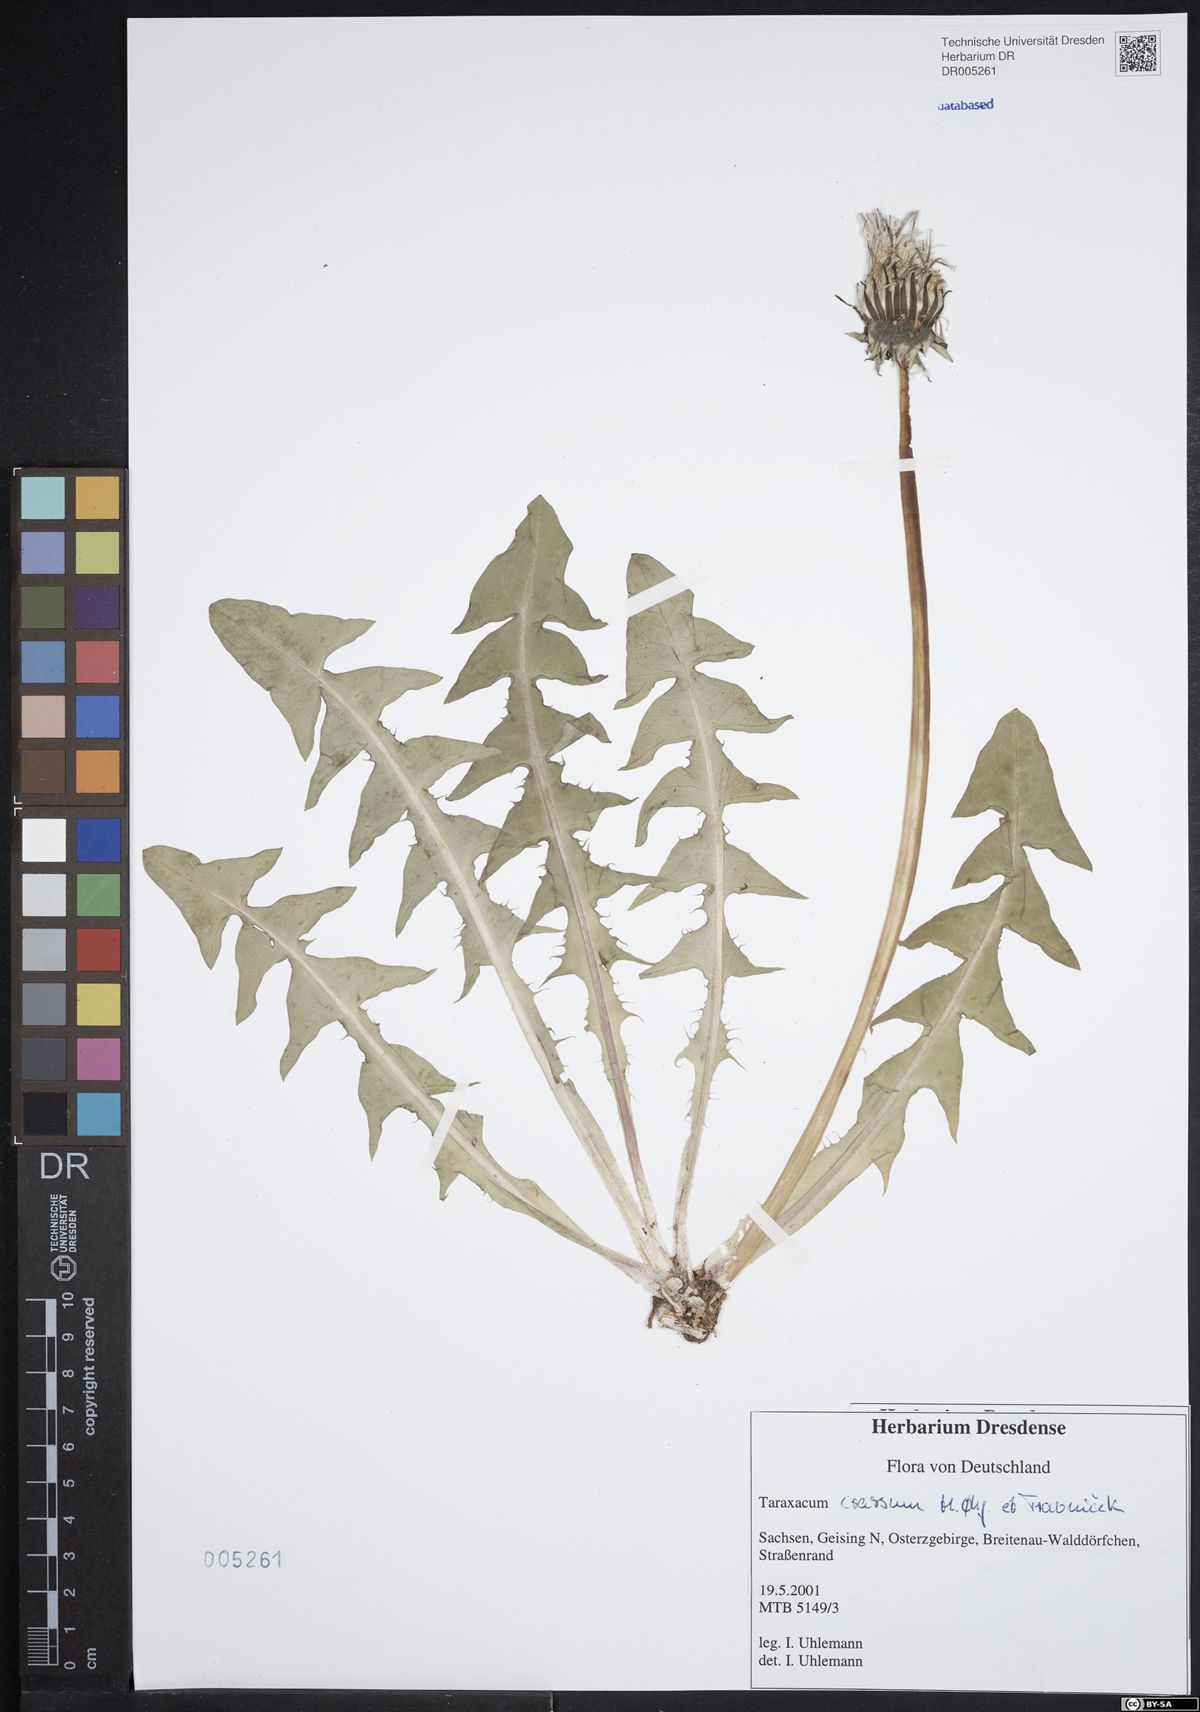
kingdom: Plantae
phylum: Tracheophyta
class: Magnoliopsida
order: Asterales
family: Asteraceae
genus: Taraxacum
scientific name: Taraxacum crassum
